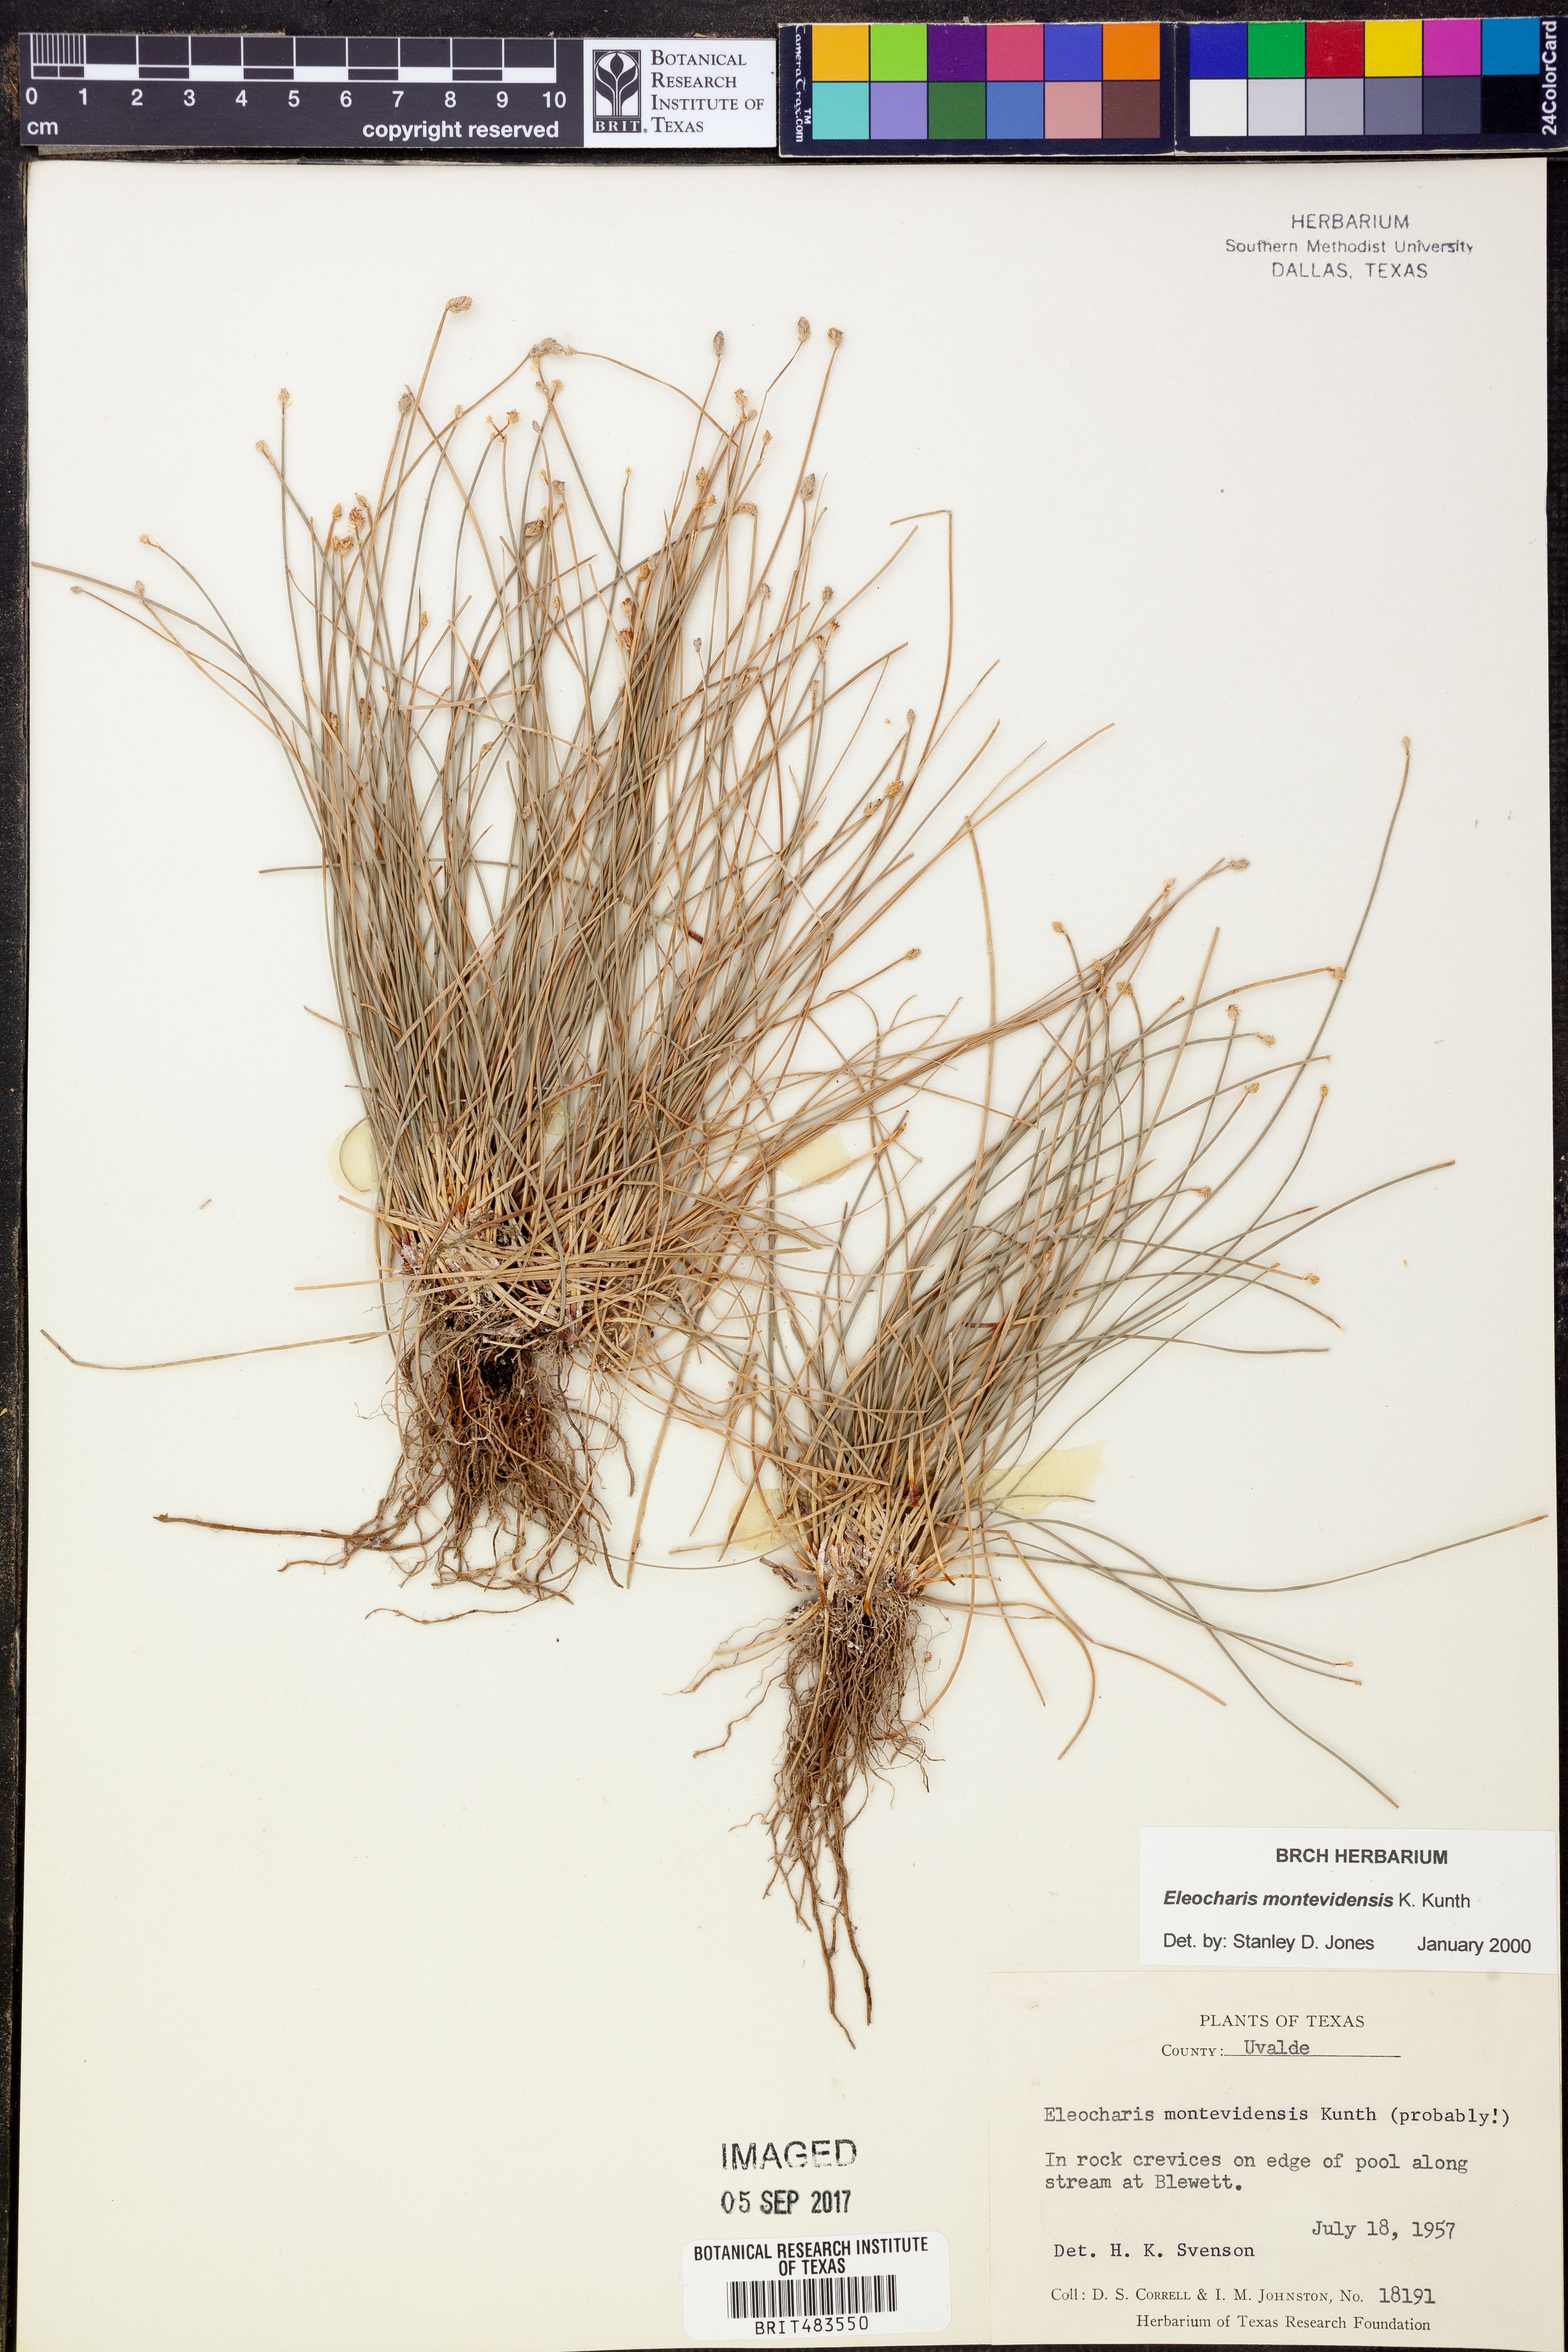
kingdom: Plantae
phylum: Tracheophyta
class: Liliopsida
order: Poales
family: Cyperaceae
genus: Eleocharis
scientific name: Eleocharis montevidensis
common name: Sand spike-rush
